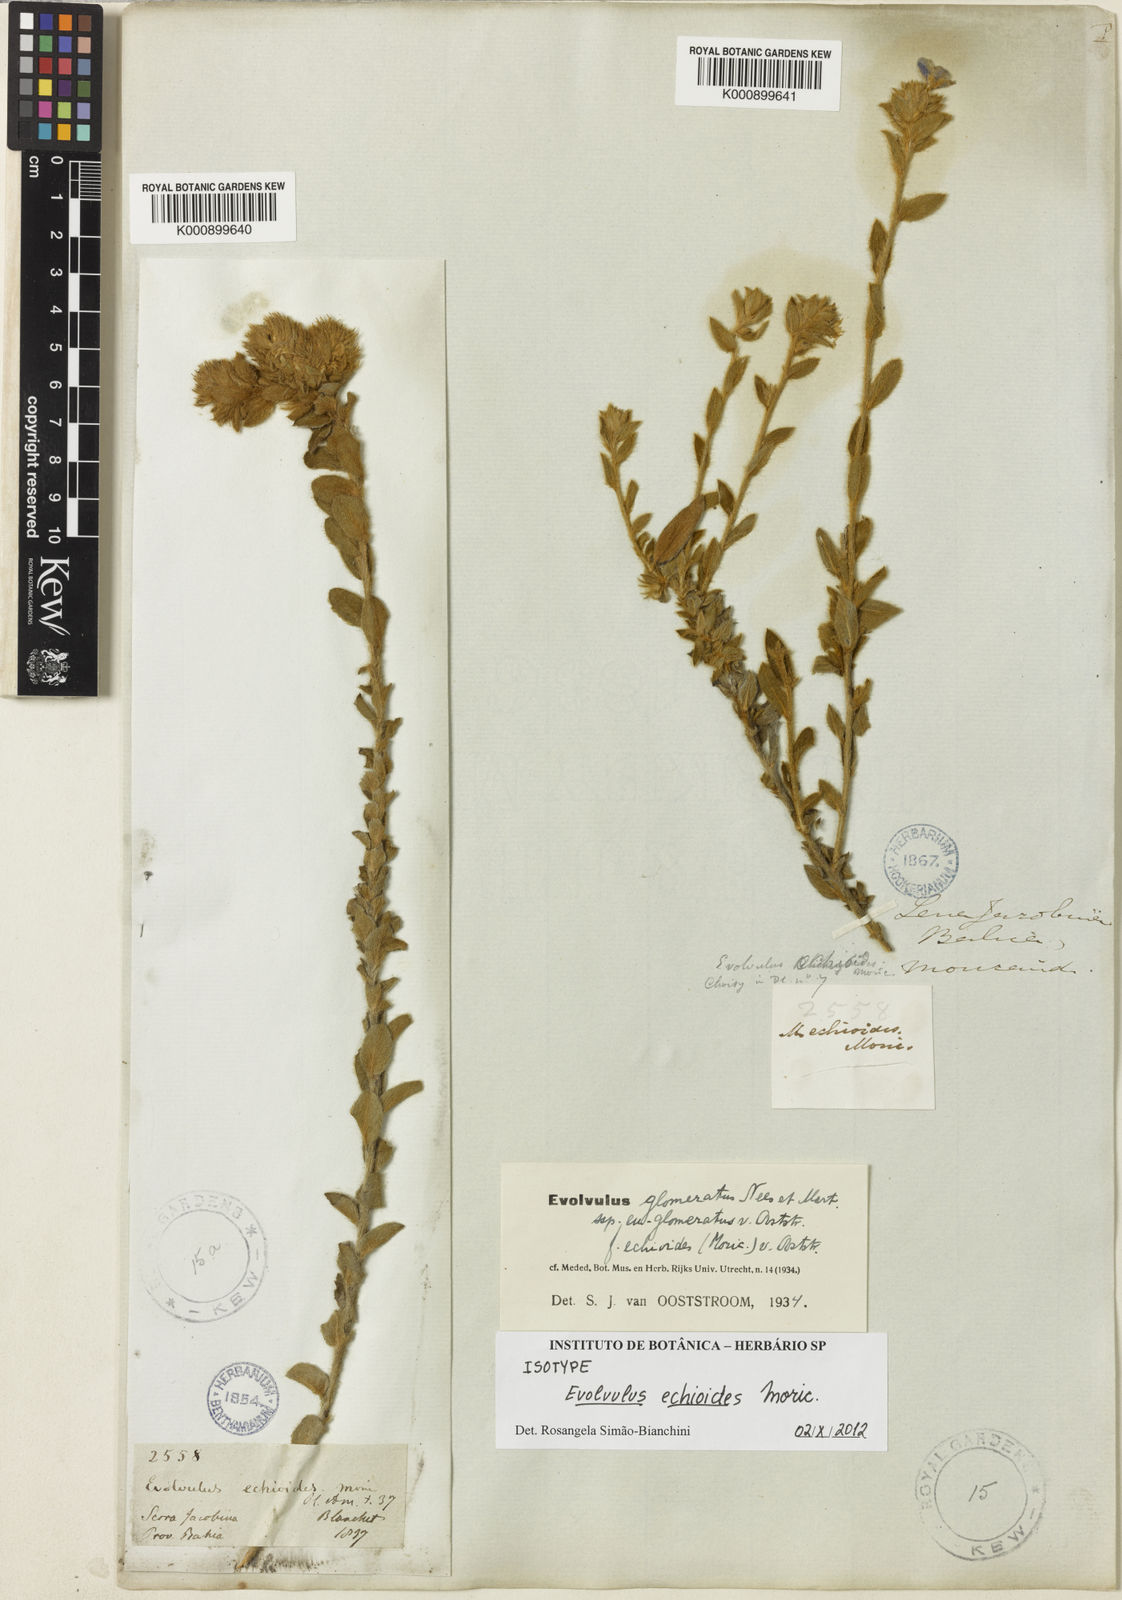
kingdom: Plantae
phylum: Tracheophyta
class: Magnoliopsida
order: Solanales
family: Convolvulaceae
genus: Evolvulus
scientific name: Evolvulus echioides
